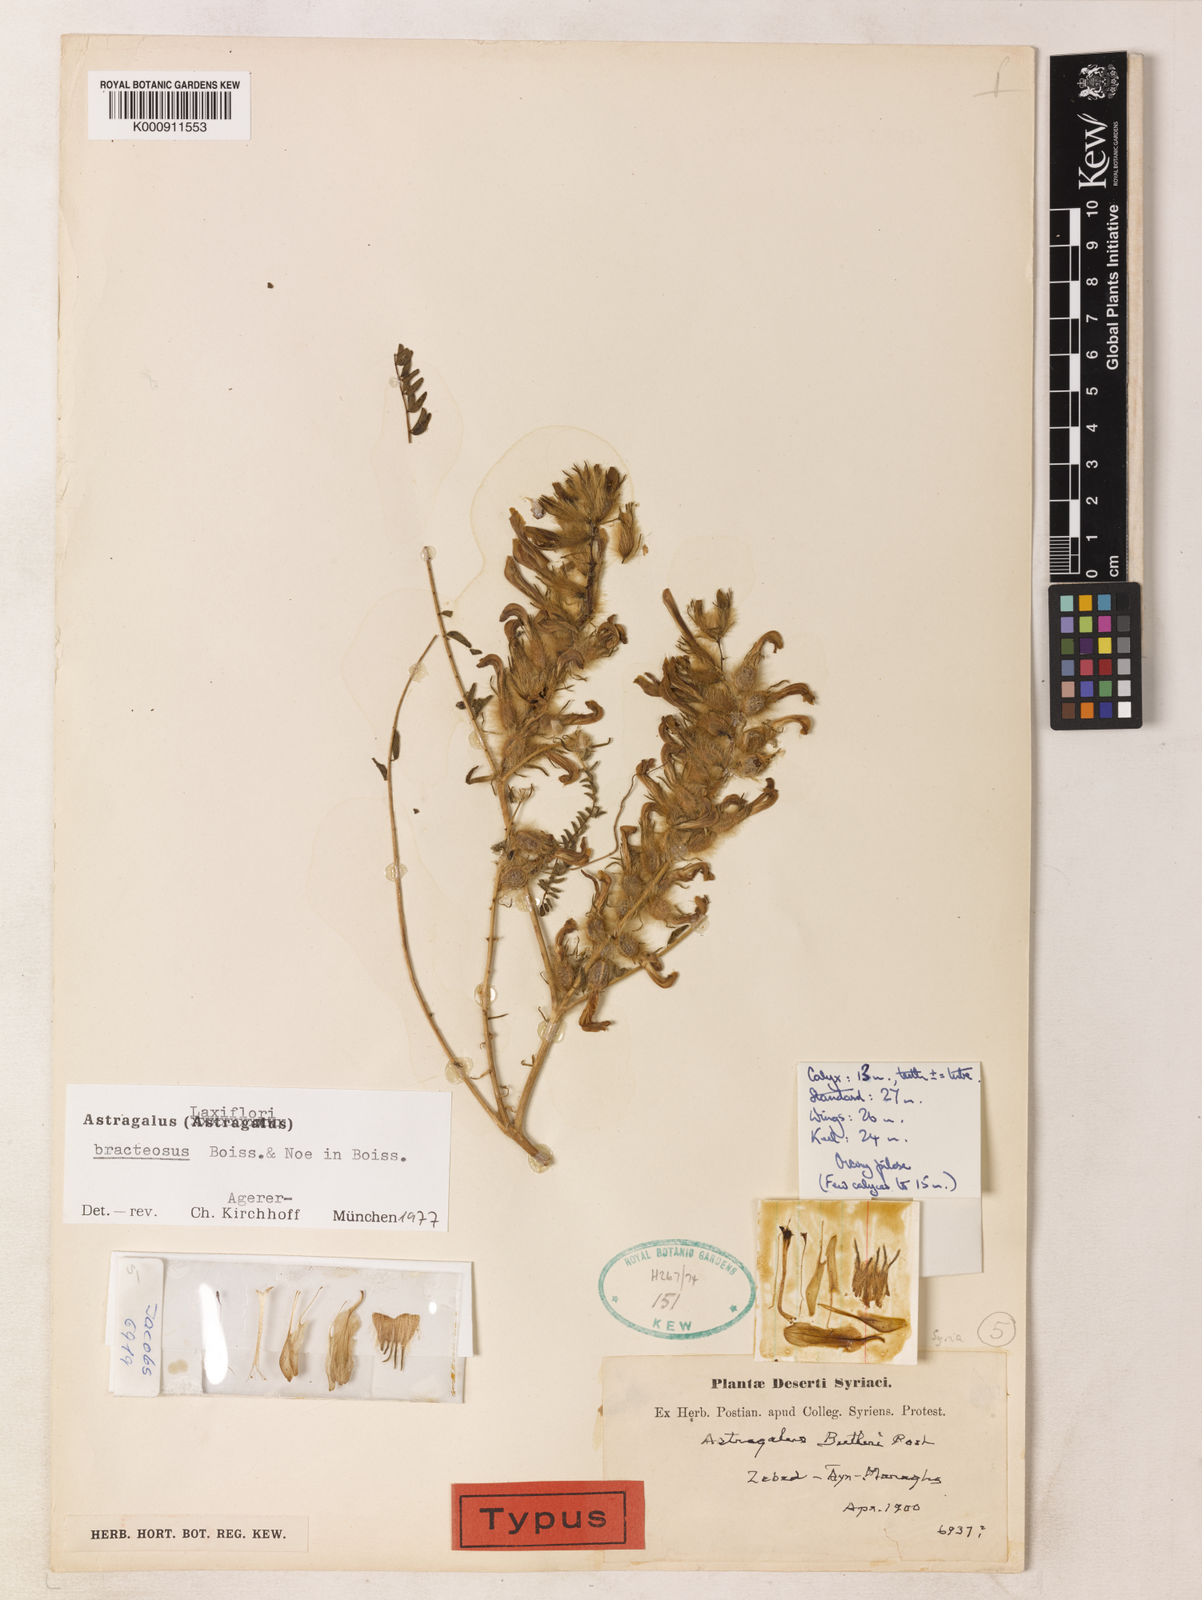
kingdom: Plantae
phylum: Tracheophyta
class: Magnoliopsida
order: Fabales
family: Fabaceae
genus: Astragalus
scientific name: Astragalus
